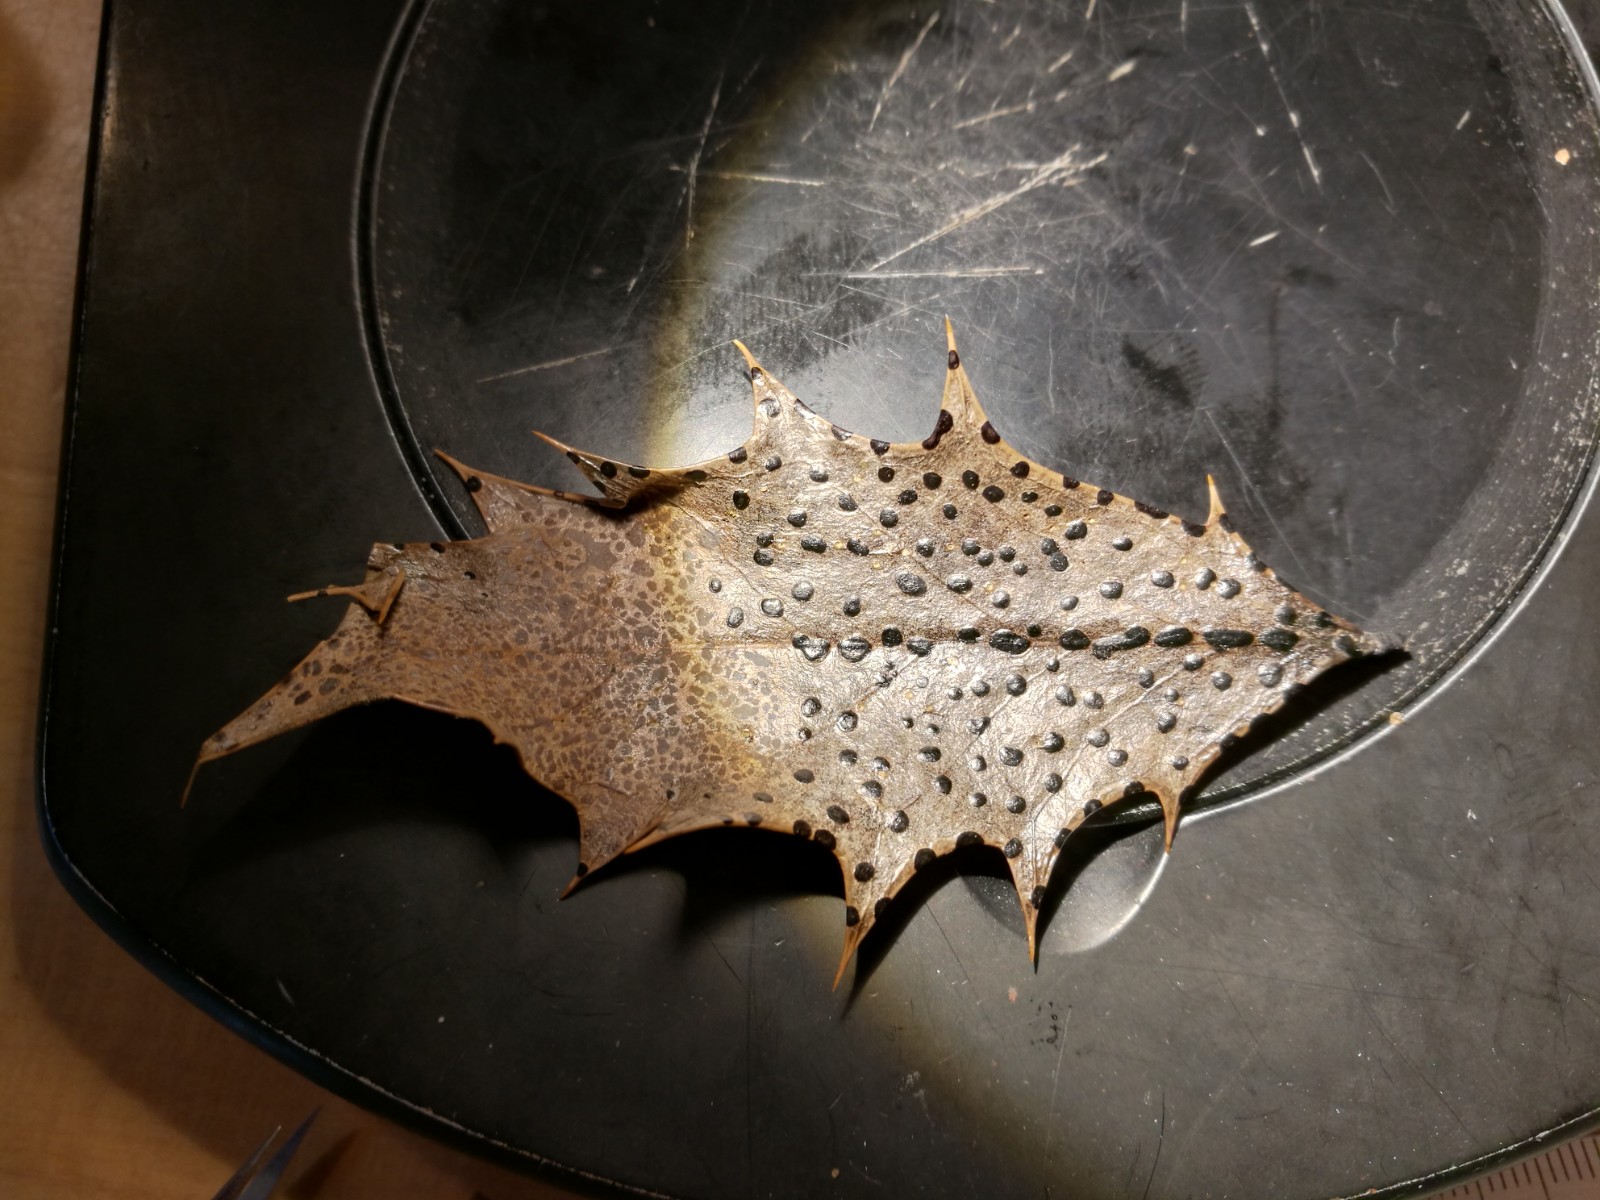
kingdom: Fungi
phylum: Ascomycota
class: Leotiomycetes
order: Phacidiales
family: Phacidiaceae
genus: Phacidium
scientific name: Phacidium lauri
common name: kristtorn-tandskive
